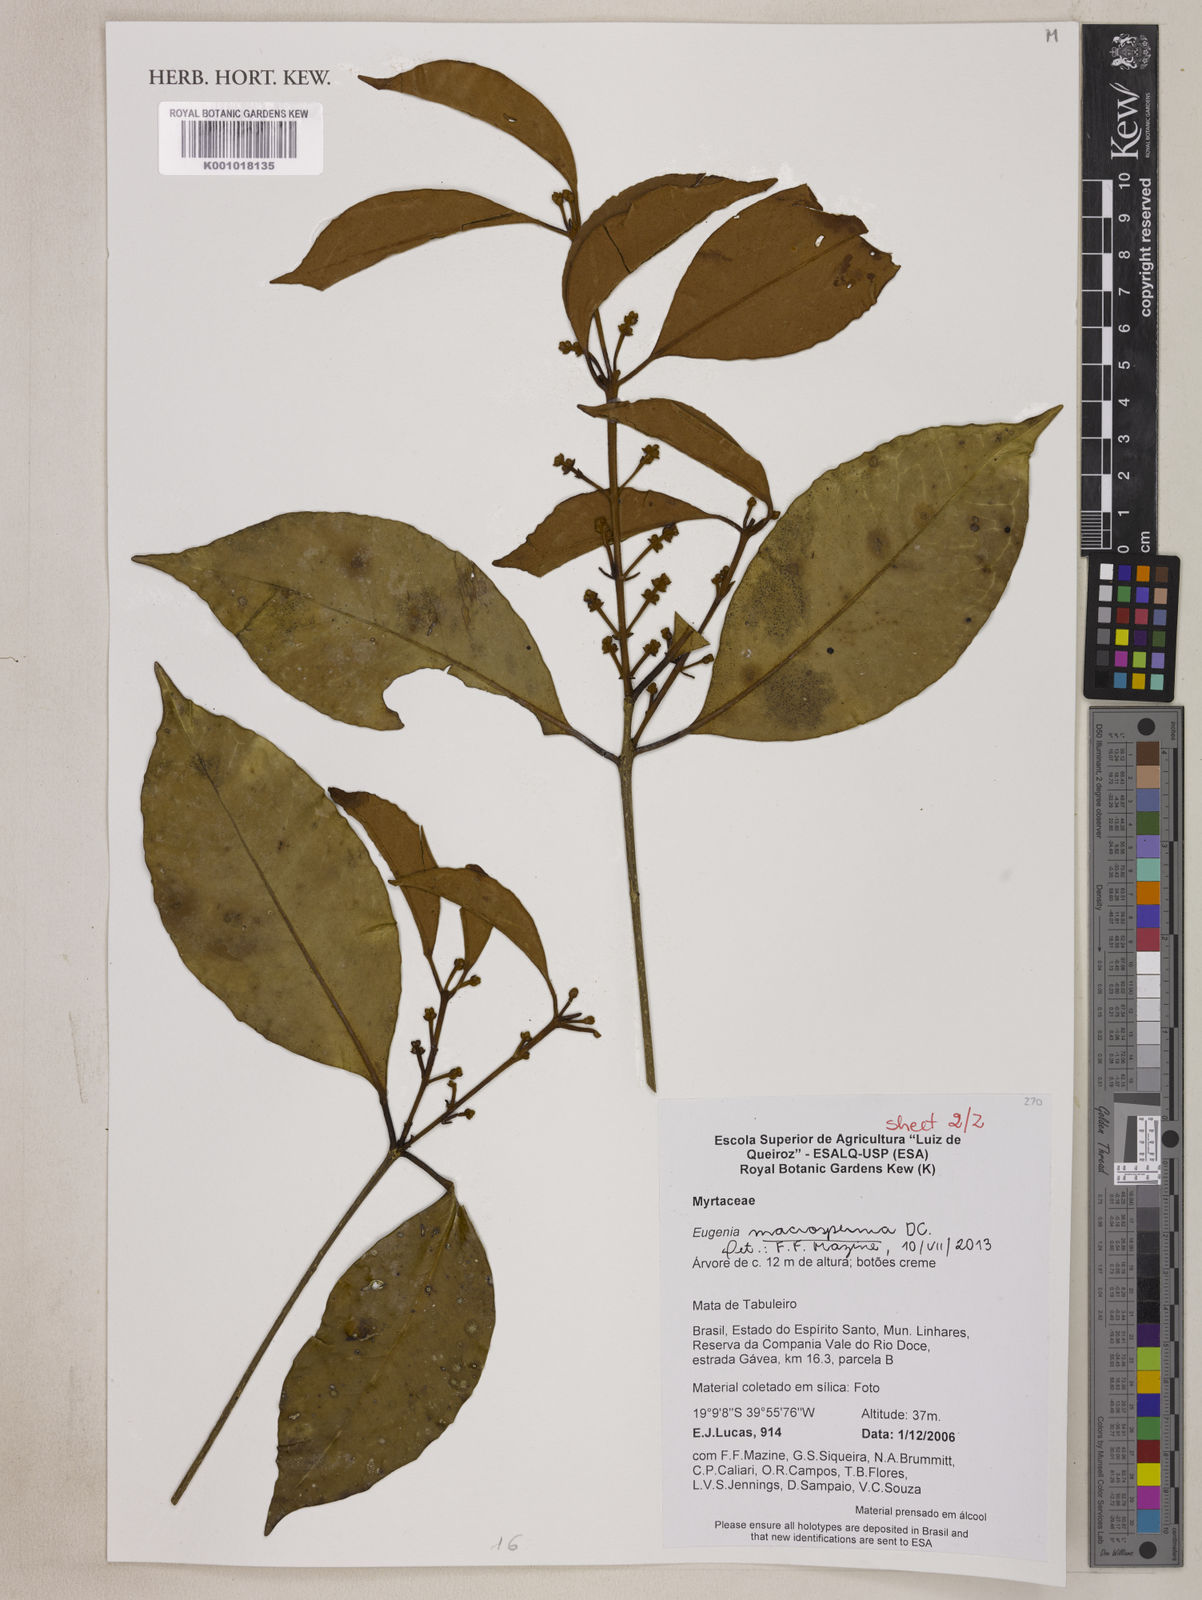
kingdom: Plantae
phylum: Tracheophyta
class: Magnoliopsida
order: Myrtales
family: Myrtaceae
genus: Eugenia
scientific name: Eugenia macrosperma
